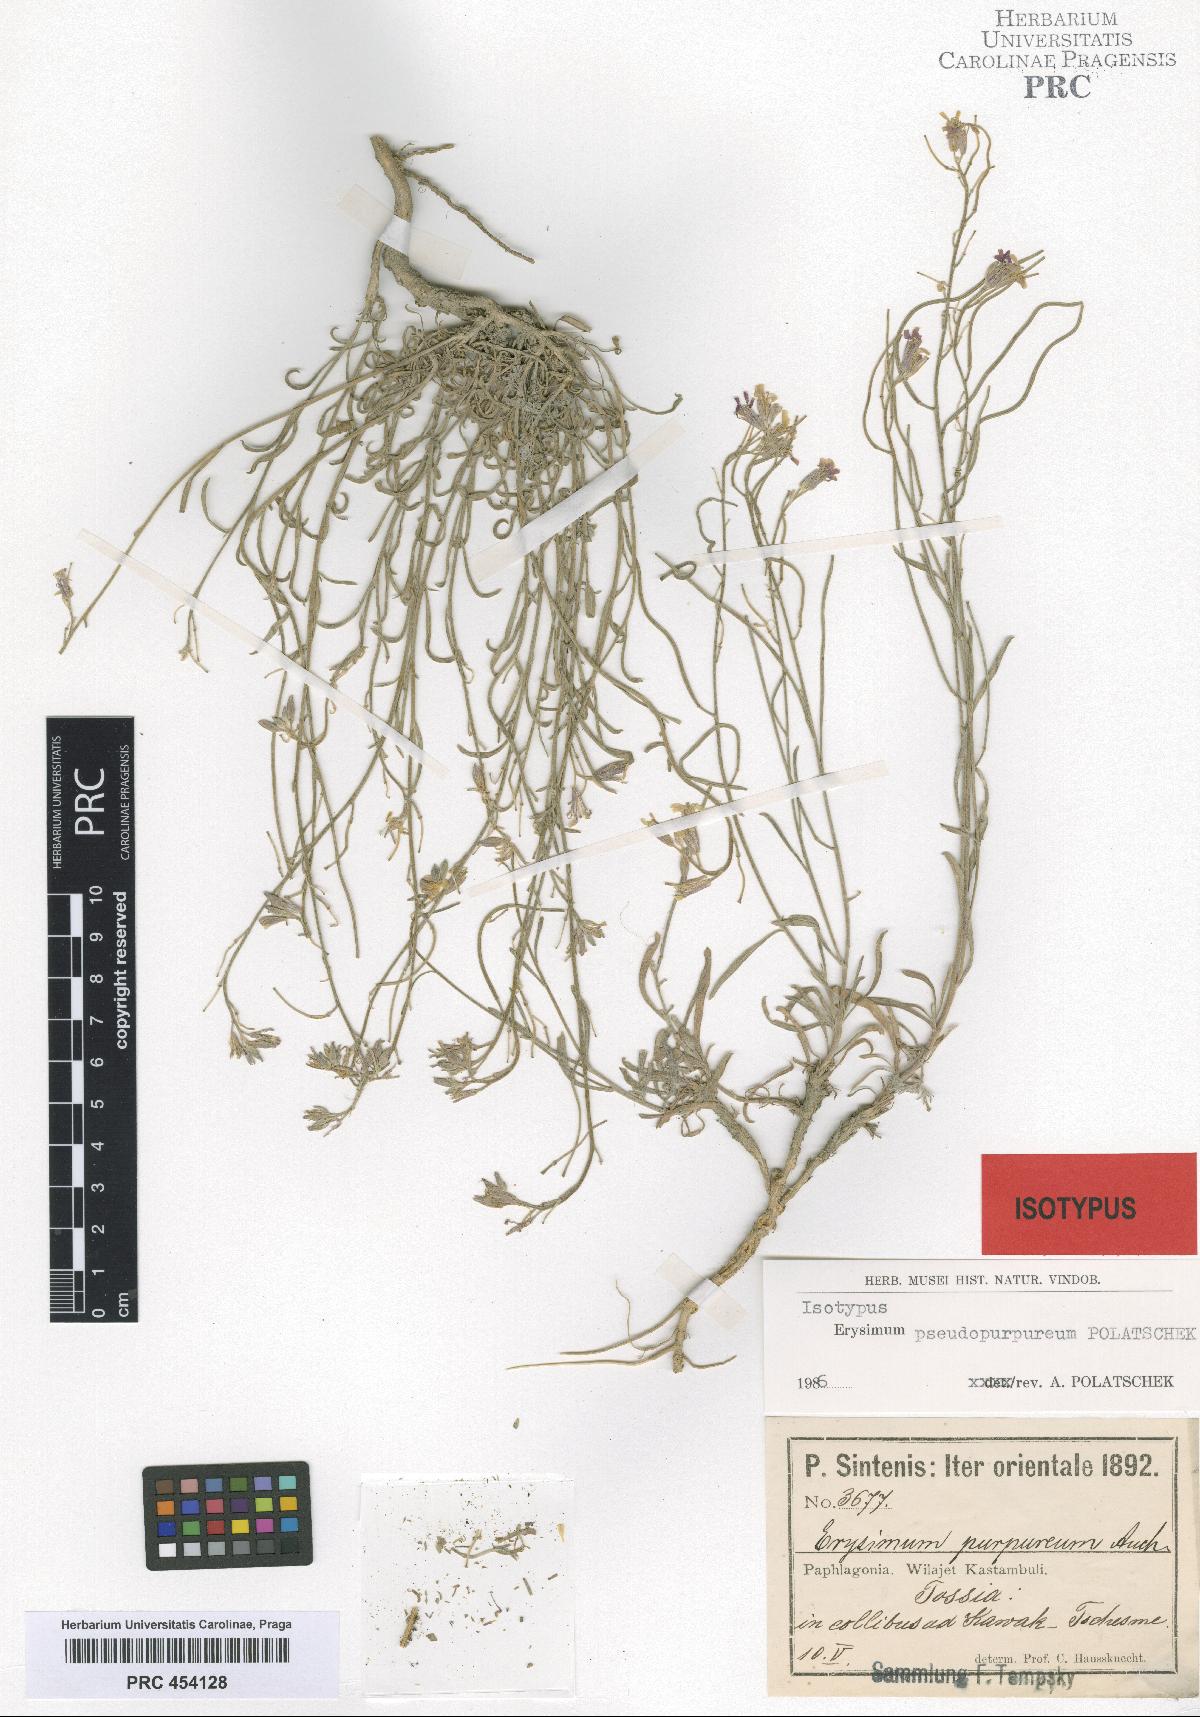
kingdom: Plantae
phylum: Tracheophyta
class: Magnoliopsida
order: Brassicales
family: Brassicaceae
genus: Erysimum
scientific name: Erysimum pseudopurpureum
